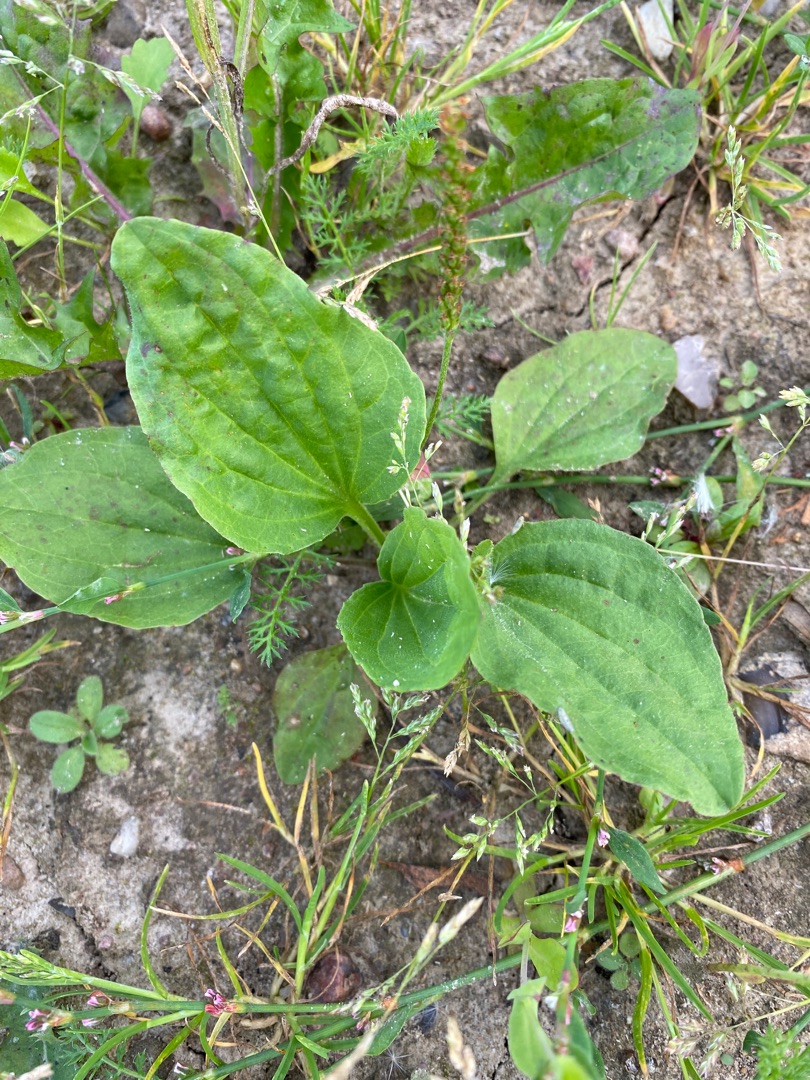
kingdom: Plantae
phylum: Tracheophyta
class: Magnoliopsida
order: Lamiales
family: Plantaginaceae
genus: Plantago
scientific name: Plantago major
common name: Glat vejbred
